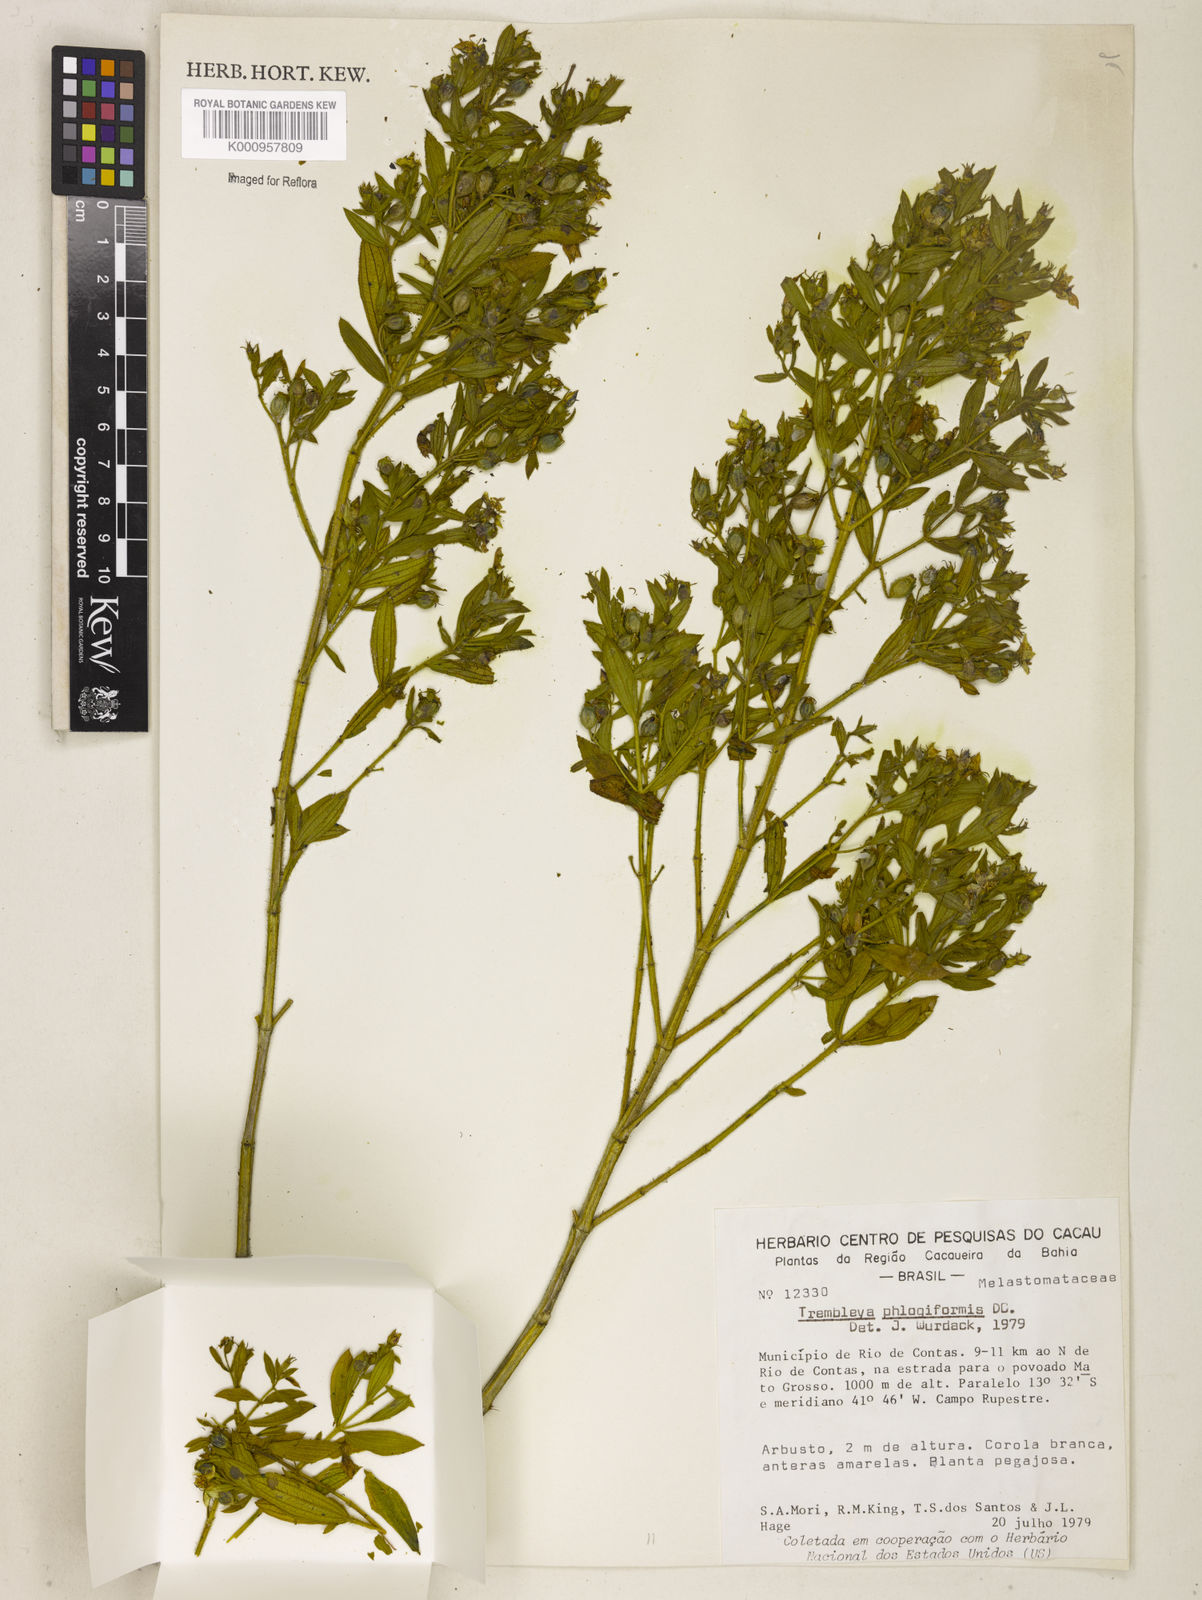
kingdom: Plantae
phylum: Tracheophyta
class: Magnoliopsida
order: Myrtales
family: Melastomataceae
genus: Microlicia
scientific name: Microlicia phlogiformis
